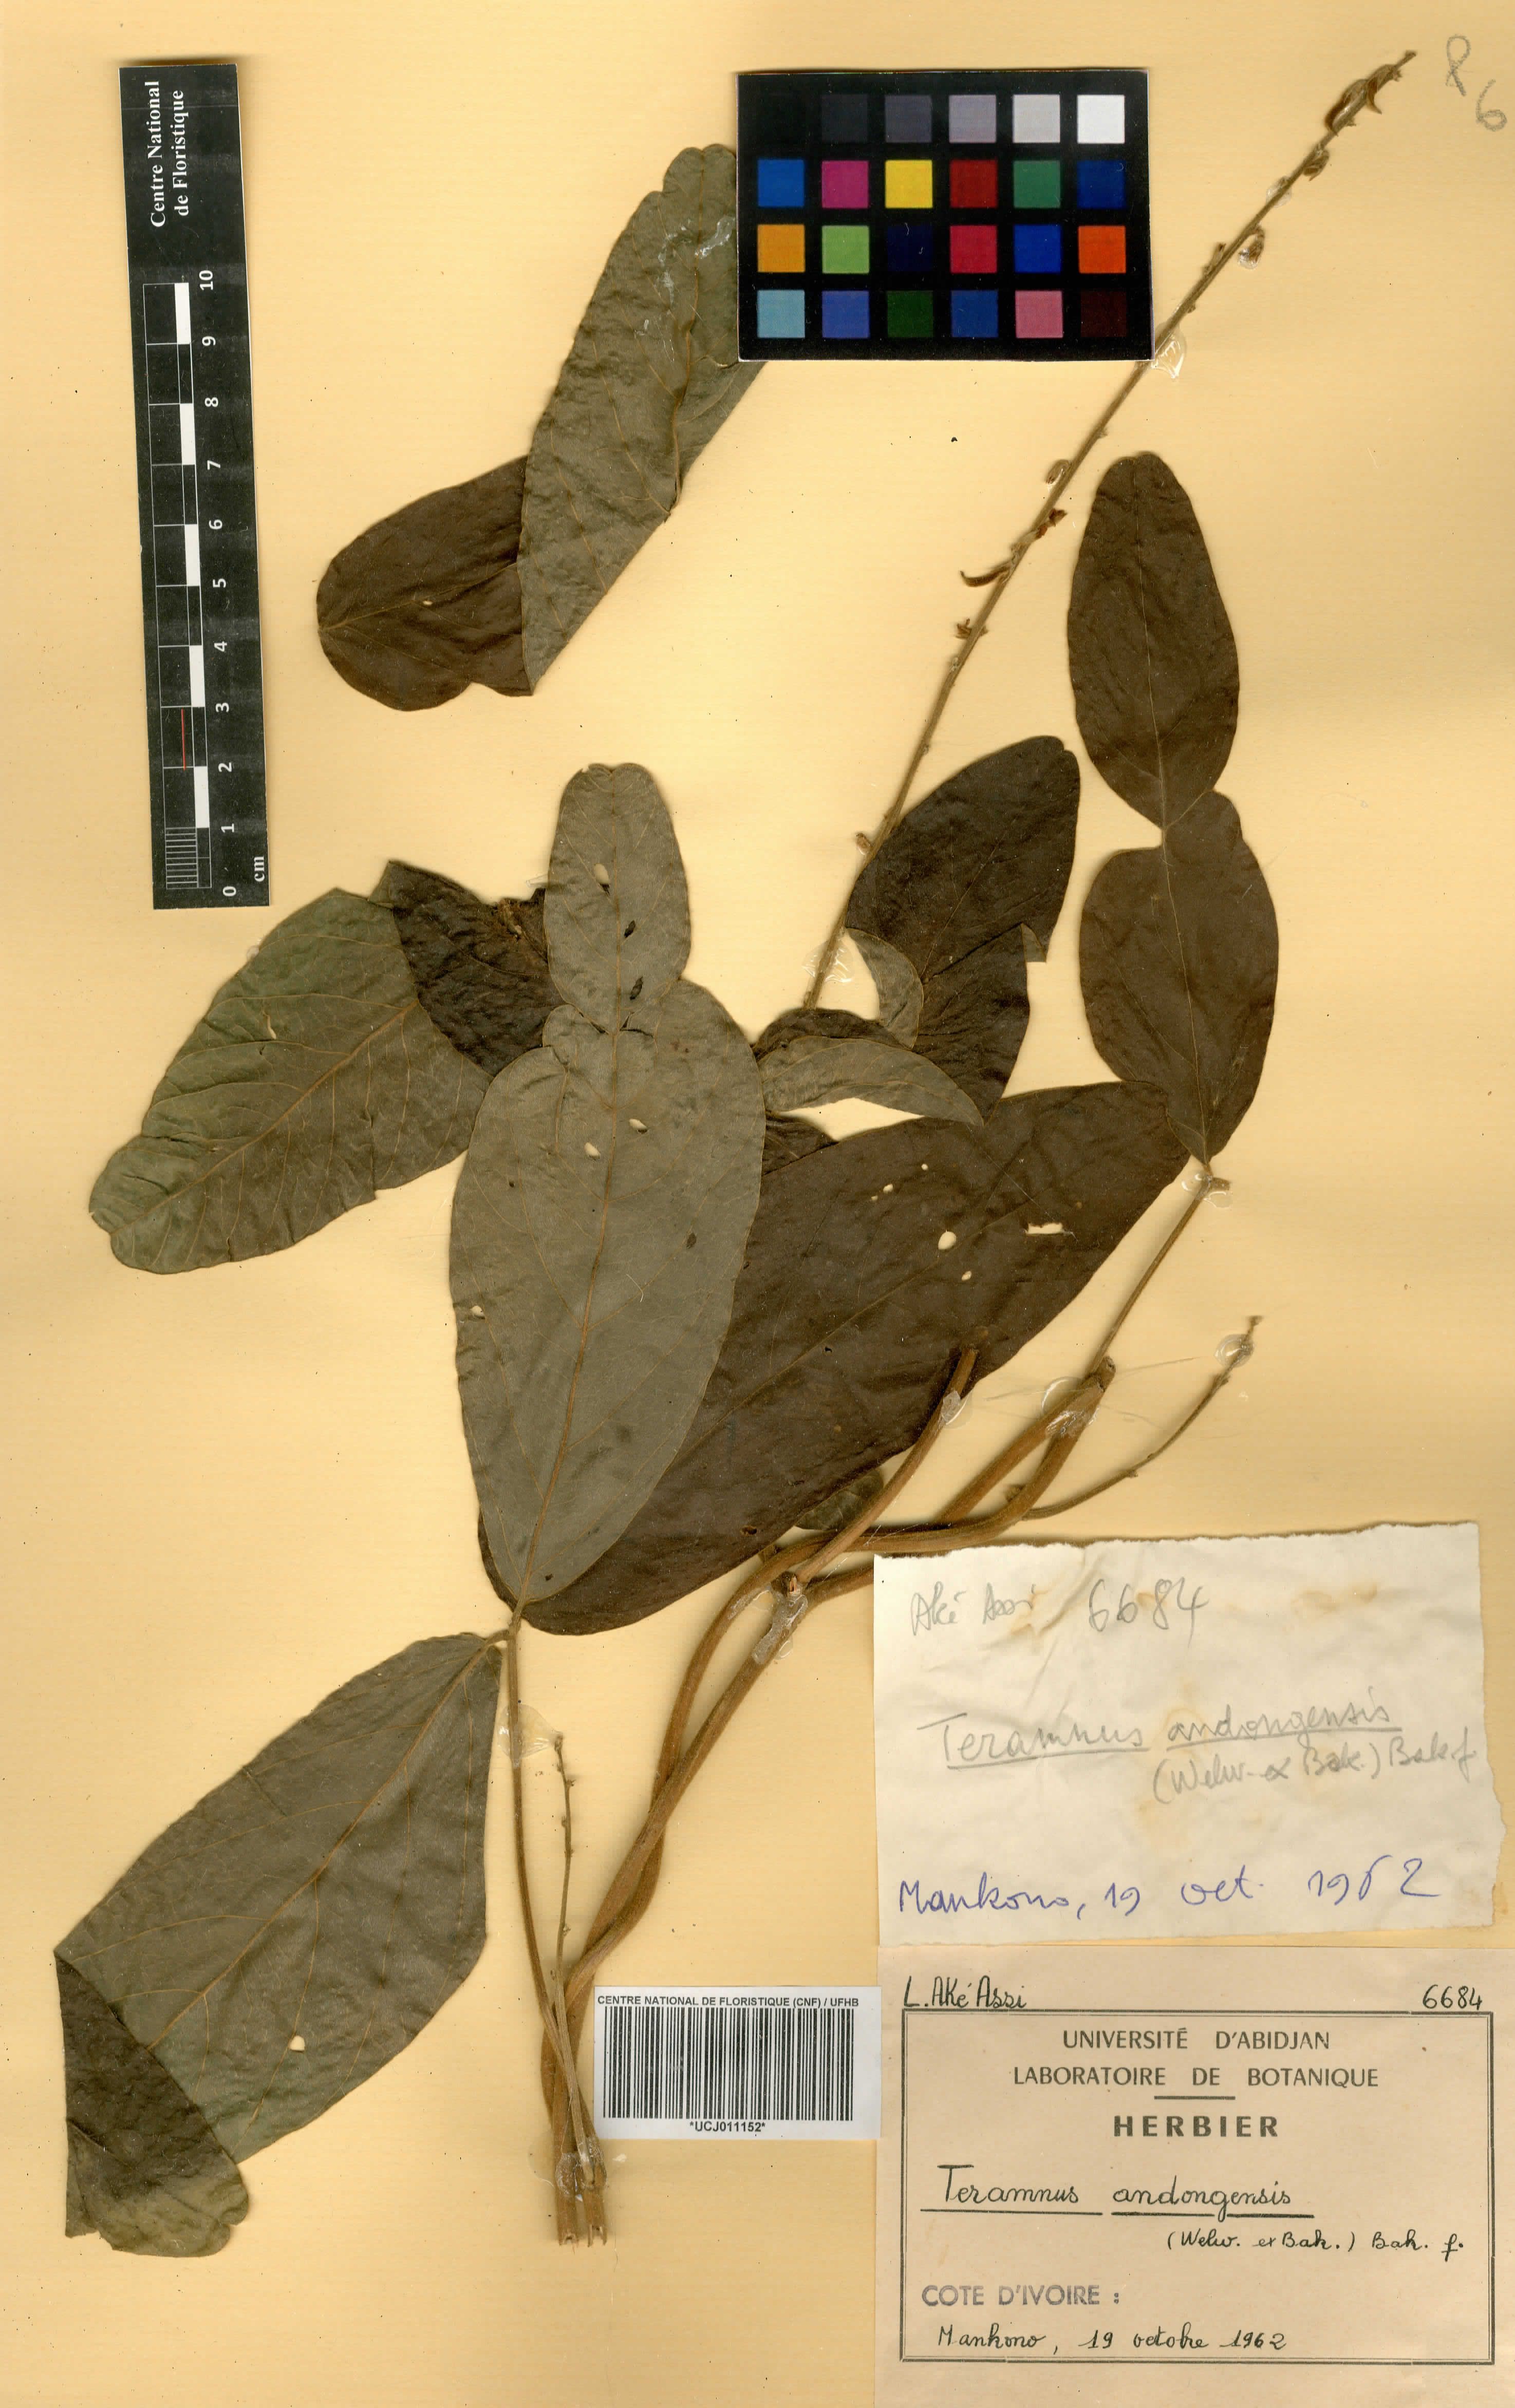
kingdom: Plantae
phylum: Tracheophyta
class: Magnoliopsida
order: Fabales
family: Fabaceae
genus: Teramnus
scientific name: Teramnus uncinatus
